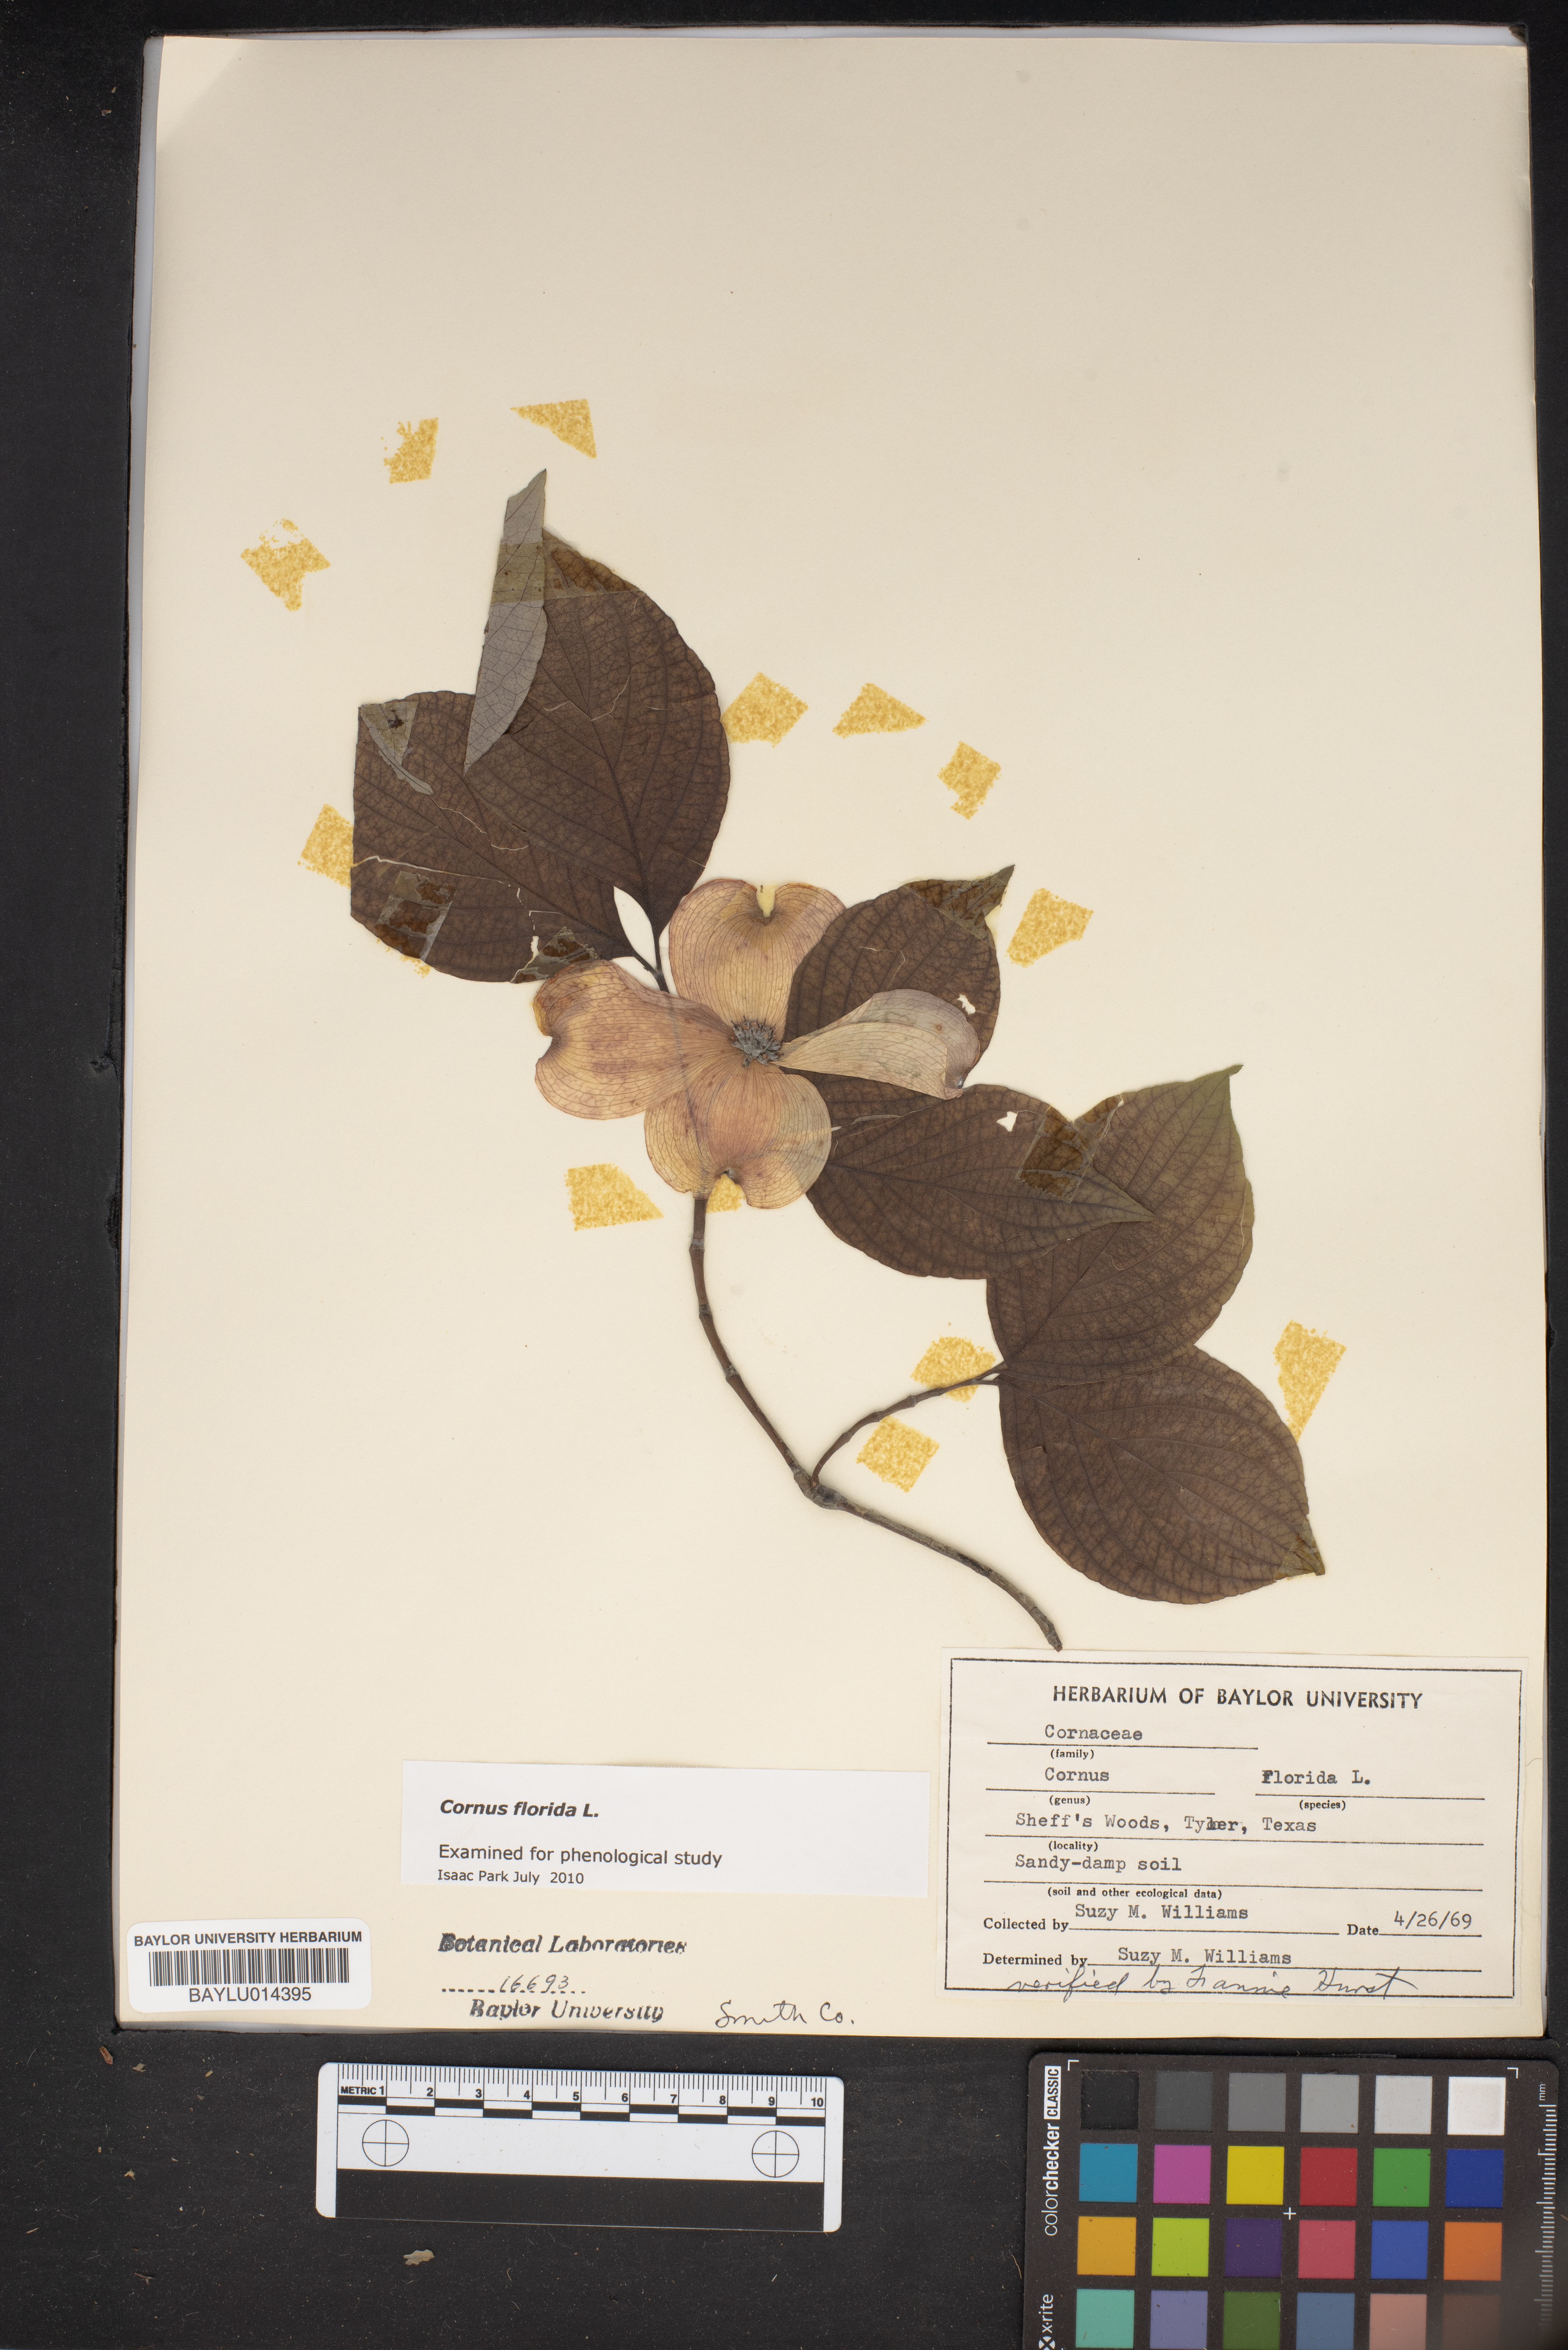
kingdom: Plantae
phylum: Tracheophyta
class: Magnoliopsida
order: Cornales
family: Cornaceae
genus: Cornus
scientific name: Cornus florida
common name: Flowering dogwood
